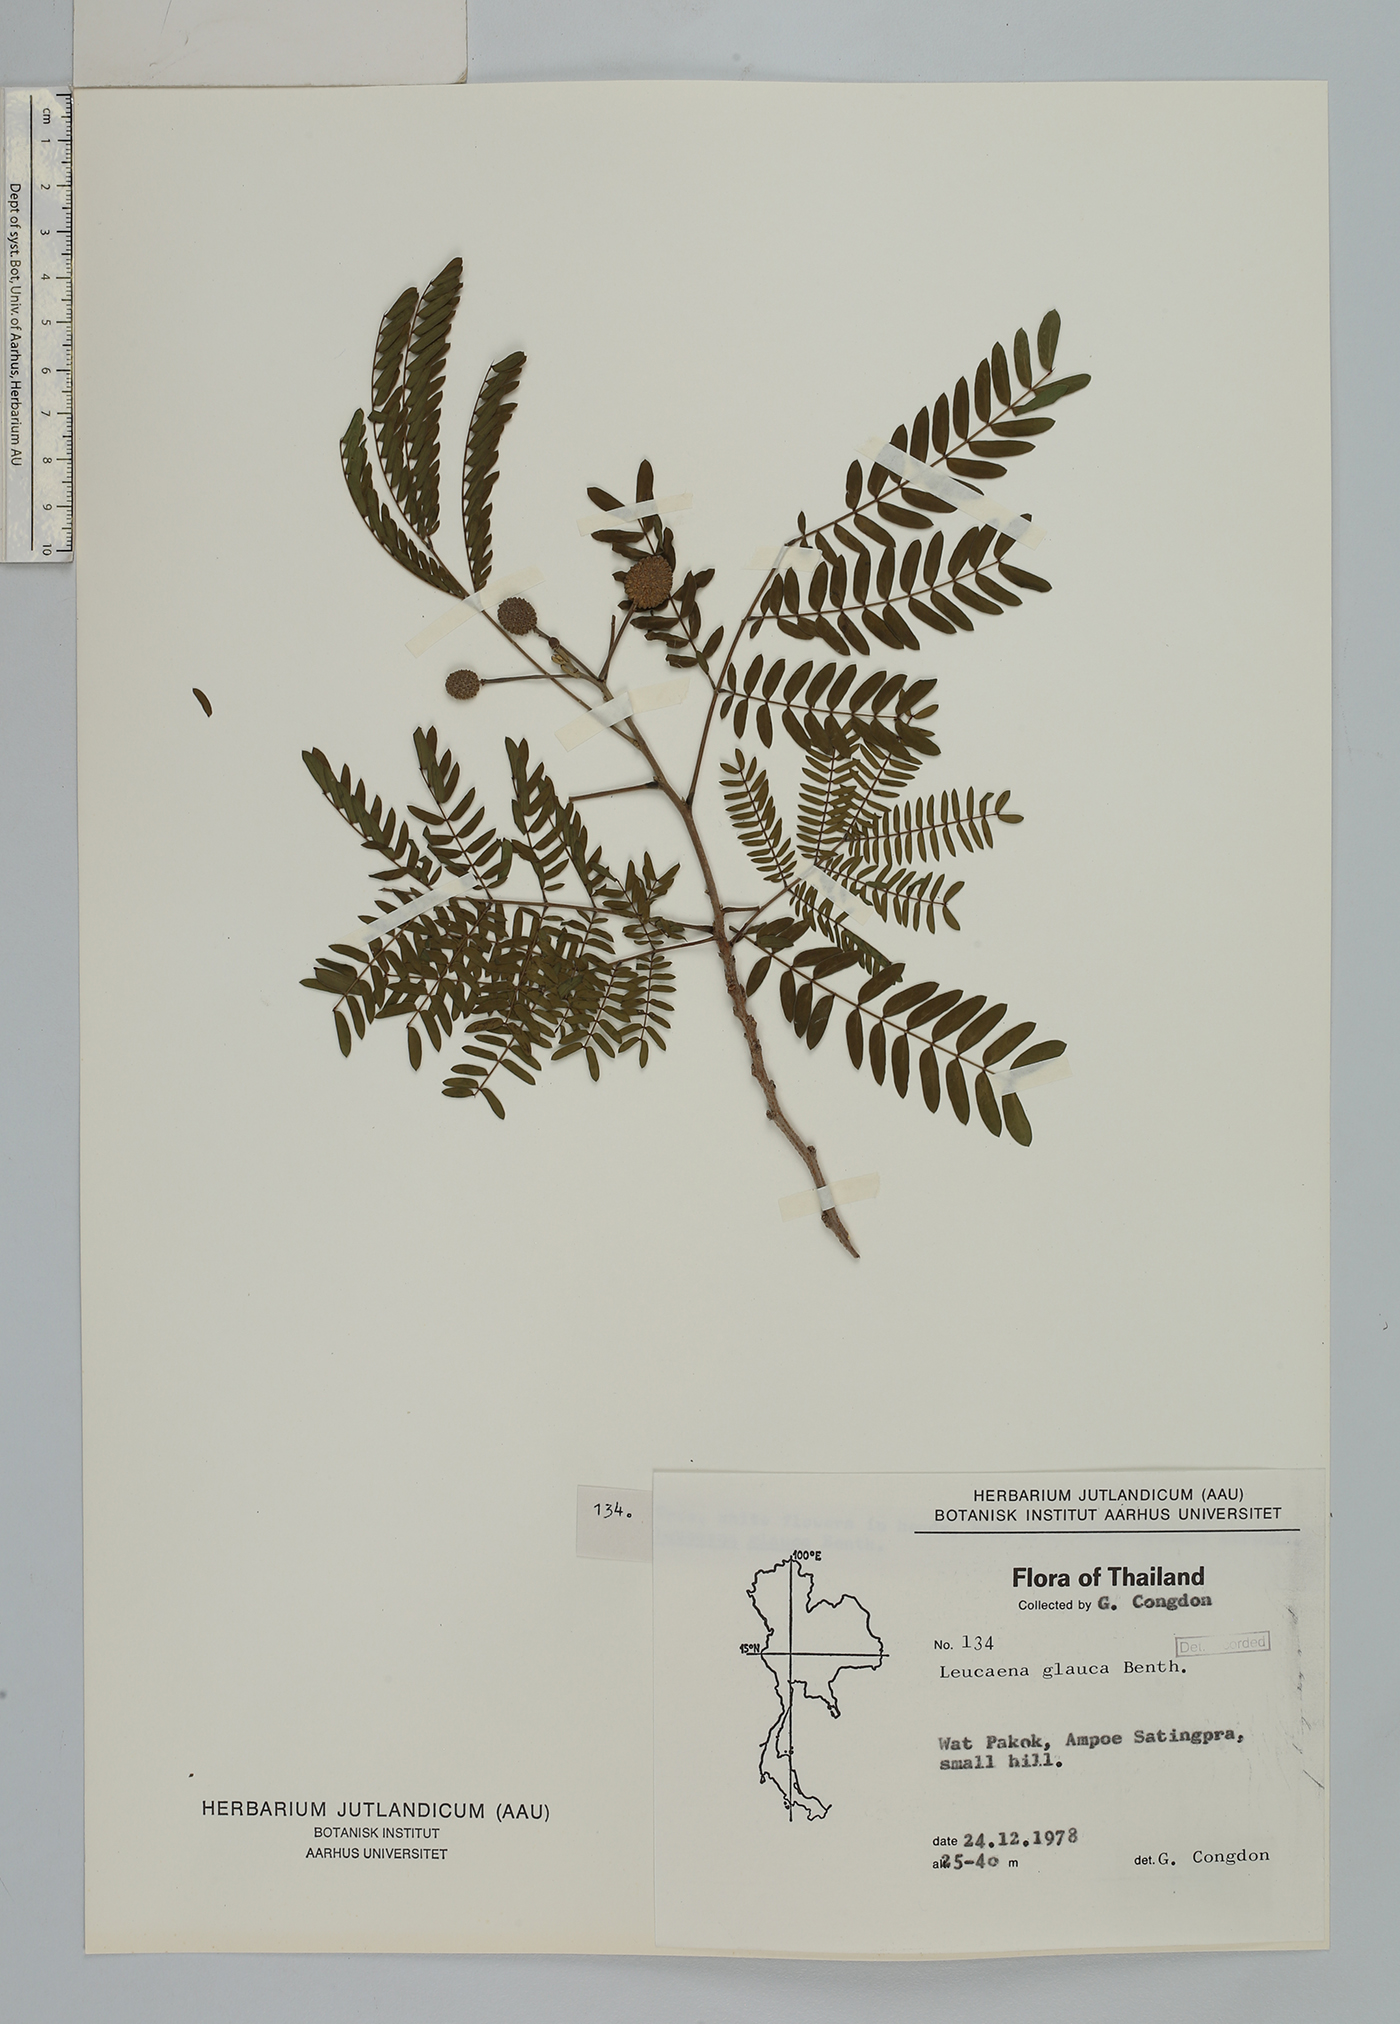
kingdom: Plantae
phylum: Tracheophyta
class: Magnoliopsida
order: Fabales
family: Fabaceae
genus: Leucaena
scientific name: Leucaena leucocephala
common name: White leadtree
